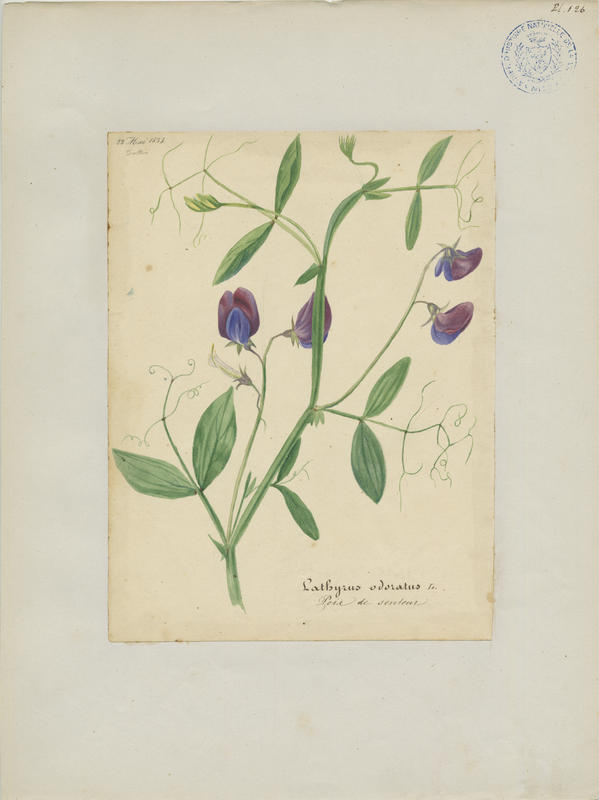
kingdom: Plantae
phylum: Tracheophyta
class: Magnoliopsida
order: Fabales
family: Fabaceae
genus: Lathyrus
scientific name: Lathyrus odoratus
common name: Sweet pea
